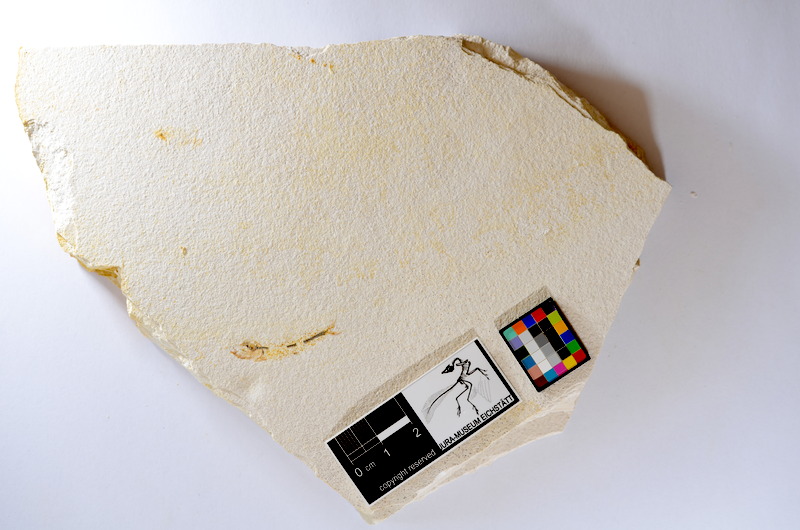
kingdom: Animalia
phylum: Chordata
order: Salmoniformes
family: Orthogonikleithridae
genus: Orthogonikleithrus
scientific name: Orthogonikleithrus hoelli
